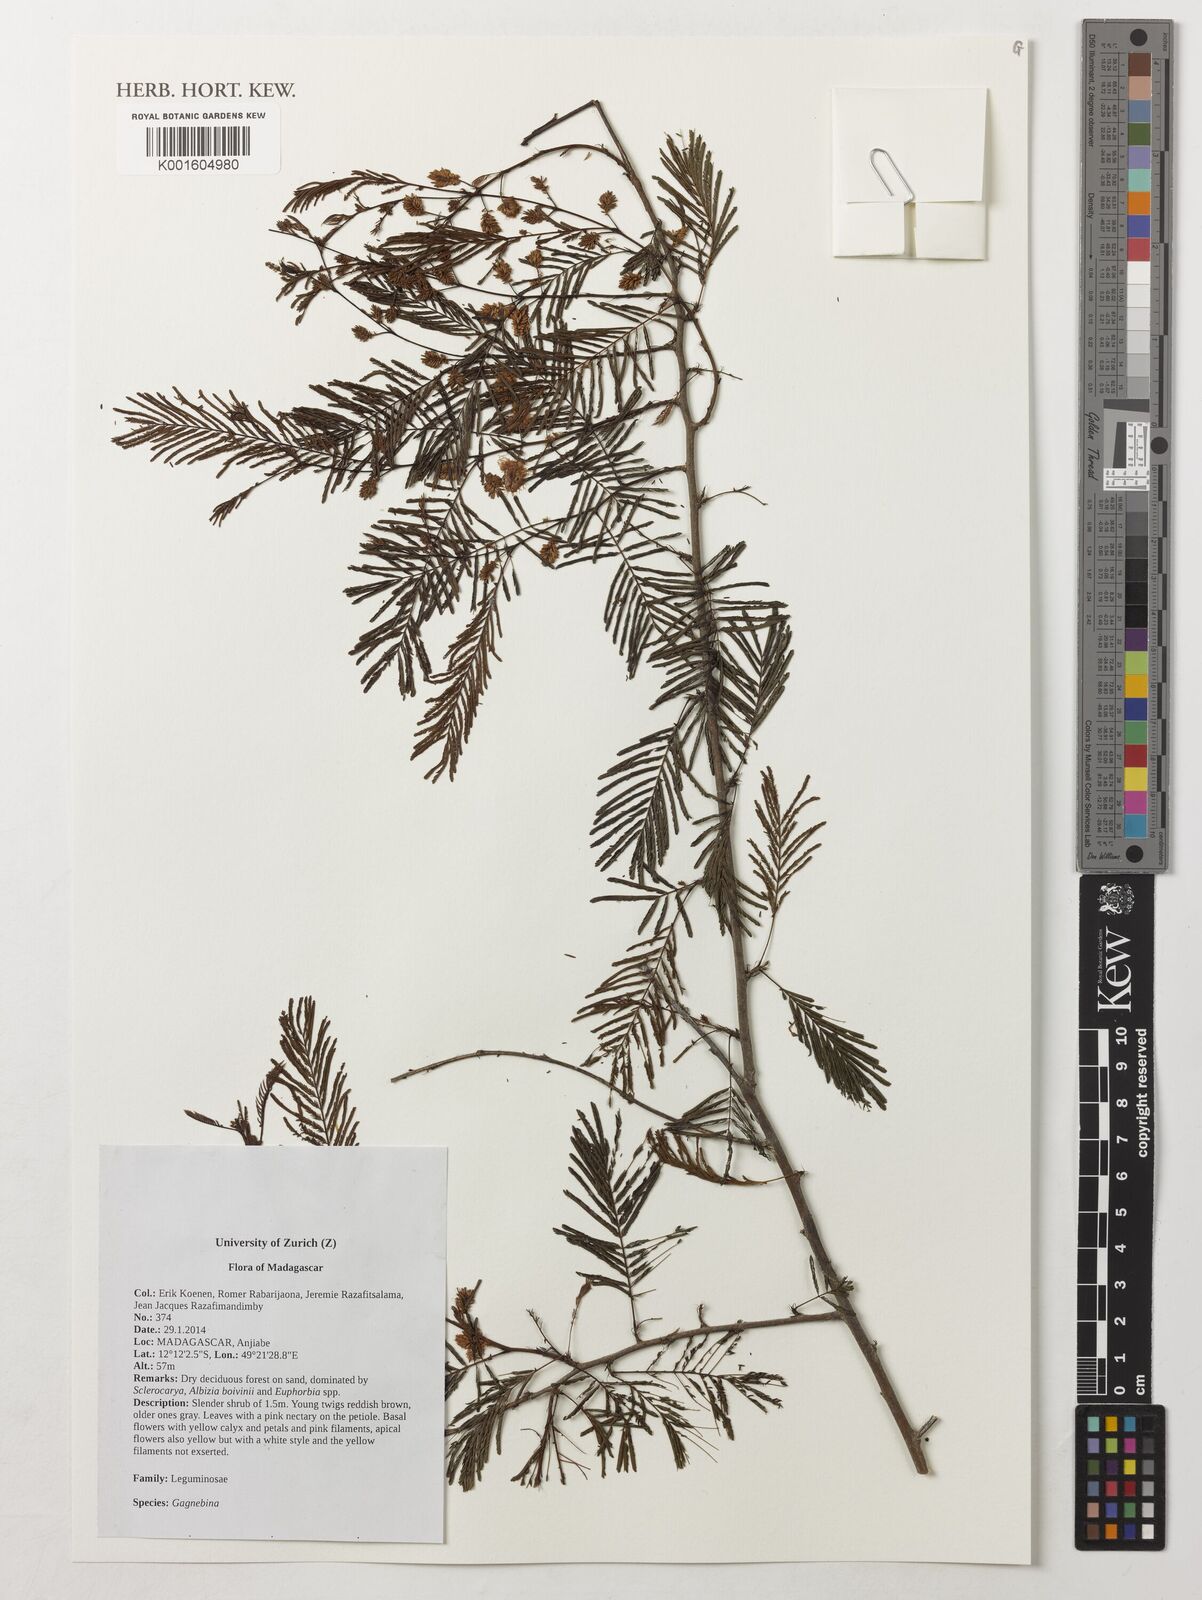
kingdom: Plantae
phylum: Tracheophyta
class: Magnoliopsida
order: Fabales
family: Fabaceae
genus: Gagnebina
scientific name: Gagnebina
